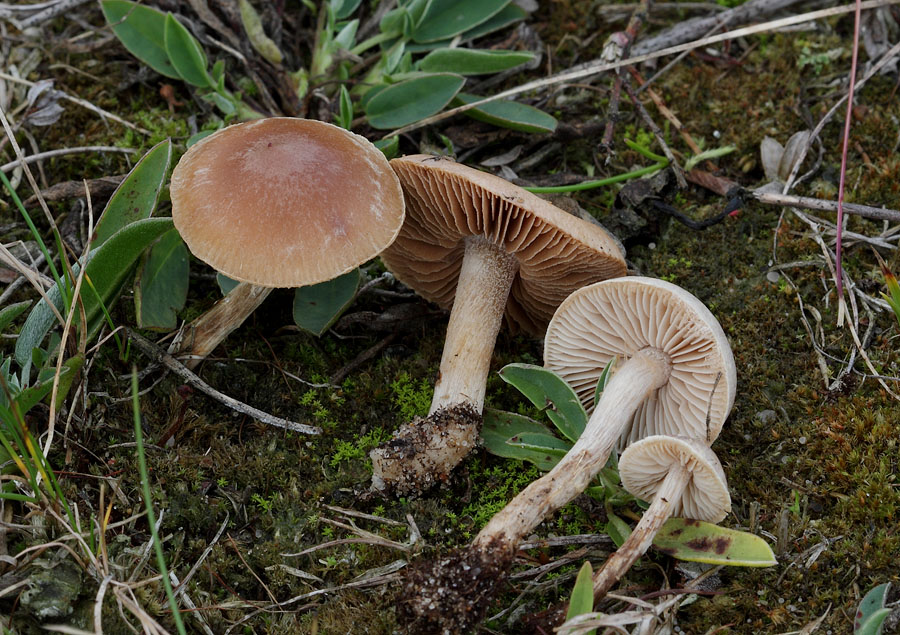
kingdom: Fungi
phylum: Basidiomycota
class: Agaricomycetes
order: Agaricales
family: Hymenogastraceae
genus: Hebeloma
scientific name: Hebeloma mesophaeum
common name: lerbrun tåreblad
